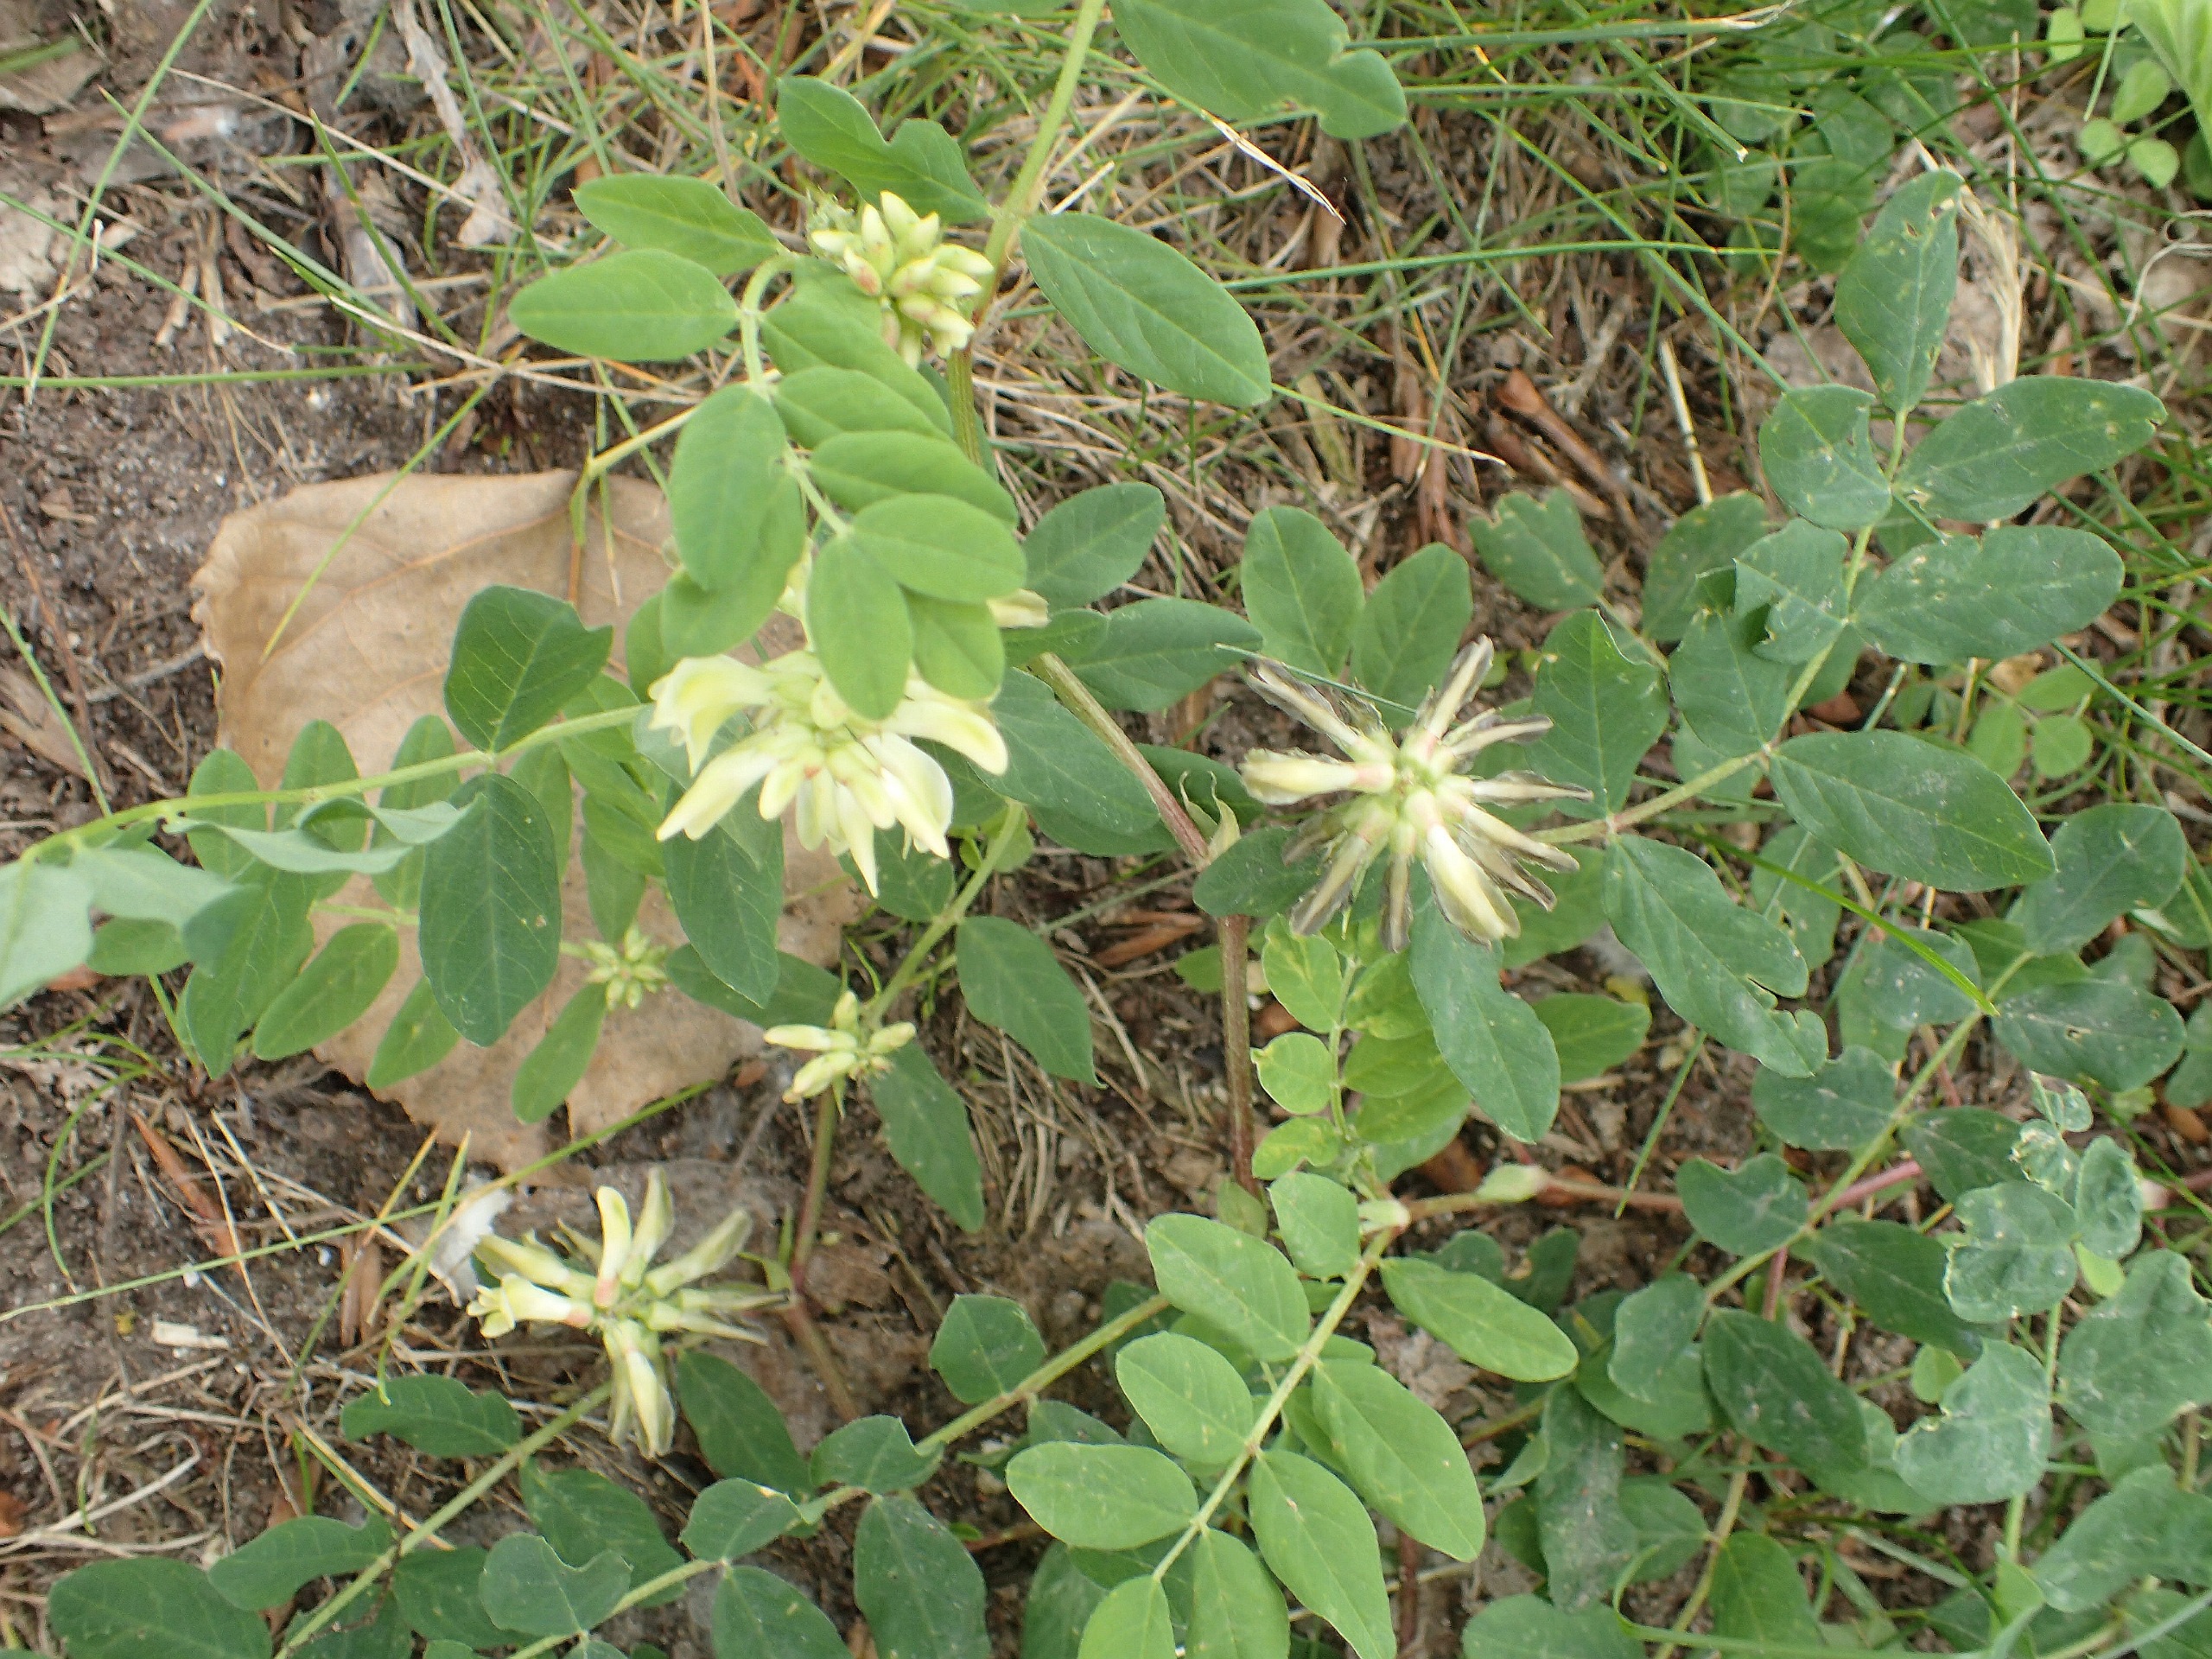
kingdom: Plantae
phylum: Tracheophyta
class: Magnoliopsida
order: Fabales
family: Fabaceae
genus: Astragalus
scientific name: Astragalus glycyphyllos
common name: Sød astragel
